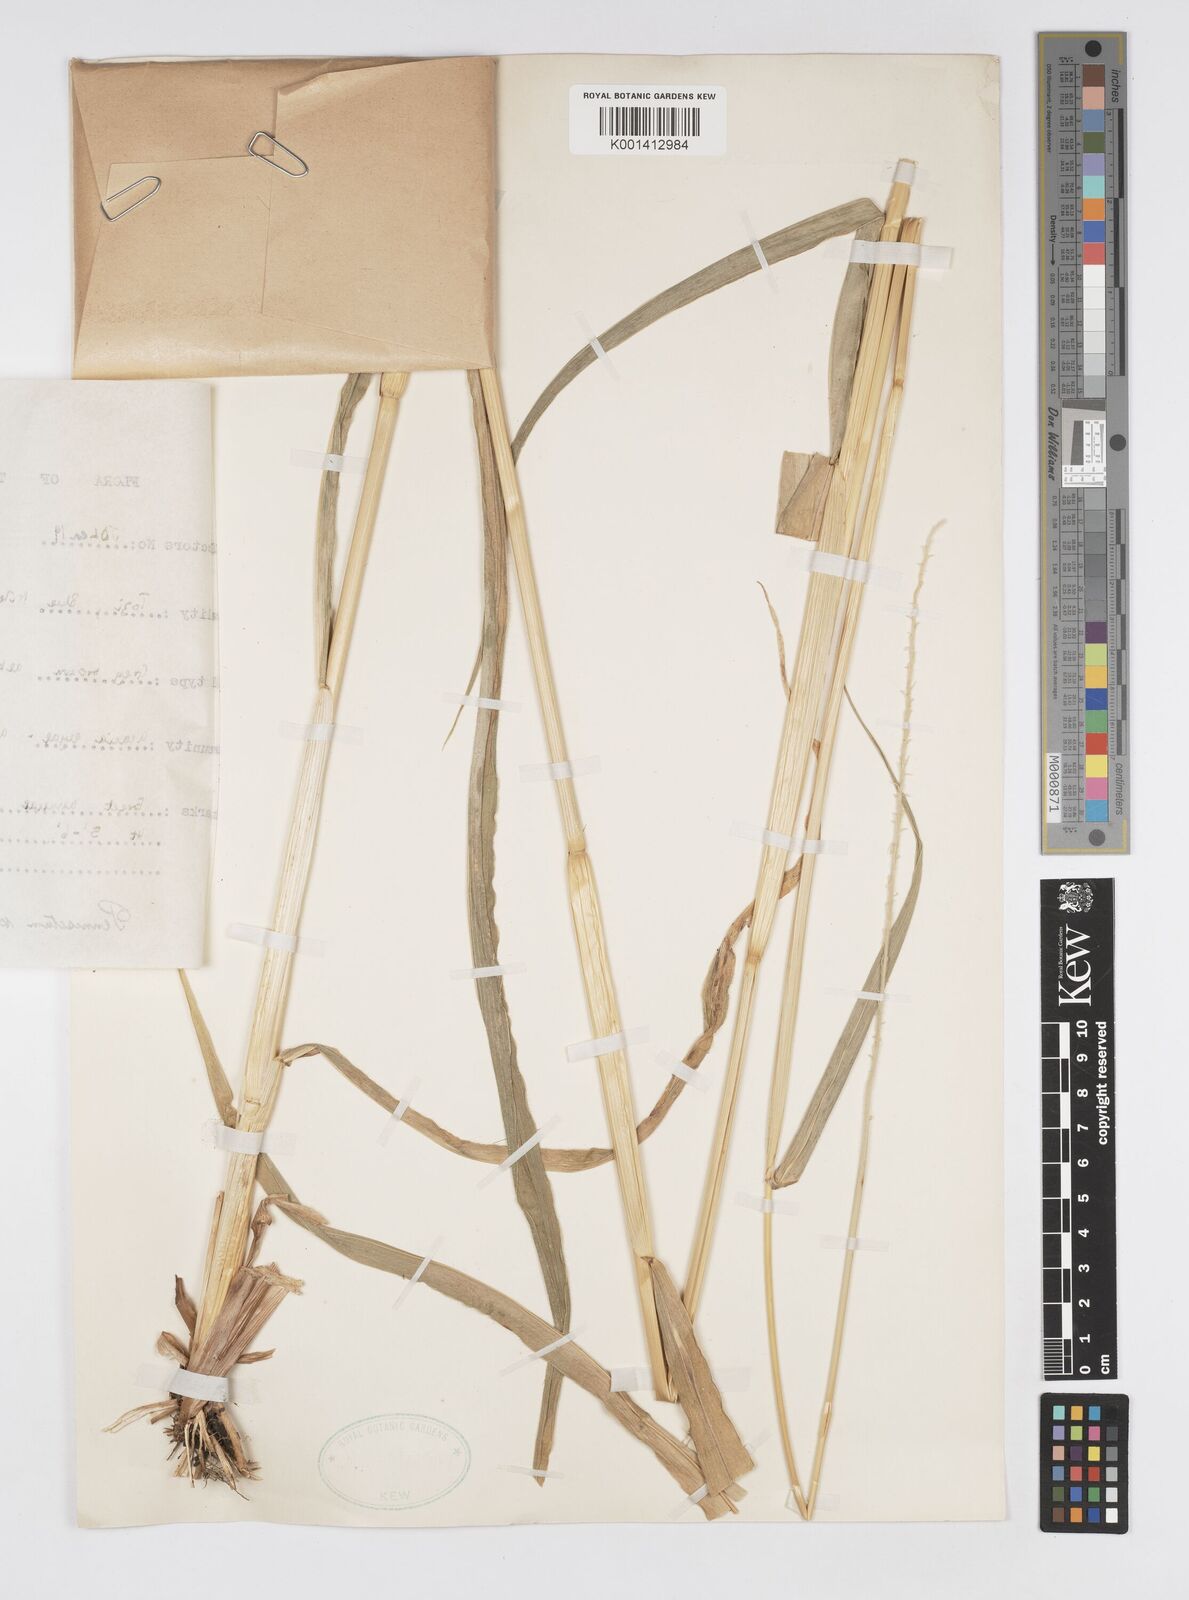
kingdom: Plantae
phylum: Tracheophyta
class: Liliopsida
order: Poales
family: Poaceae
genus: Cenchrus
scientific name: Cenchrus schweinfurthii
